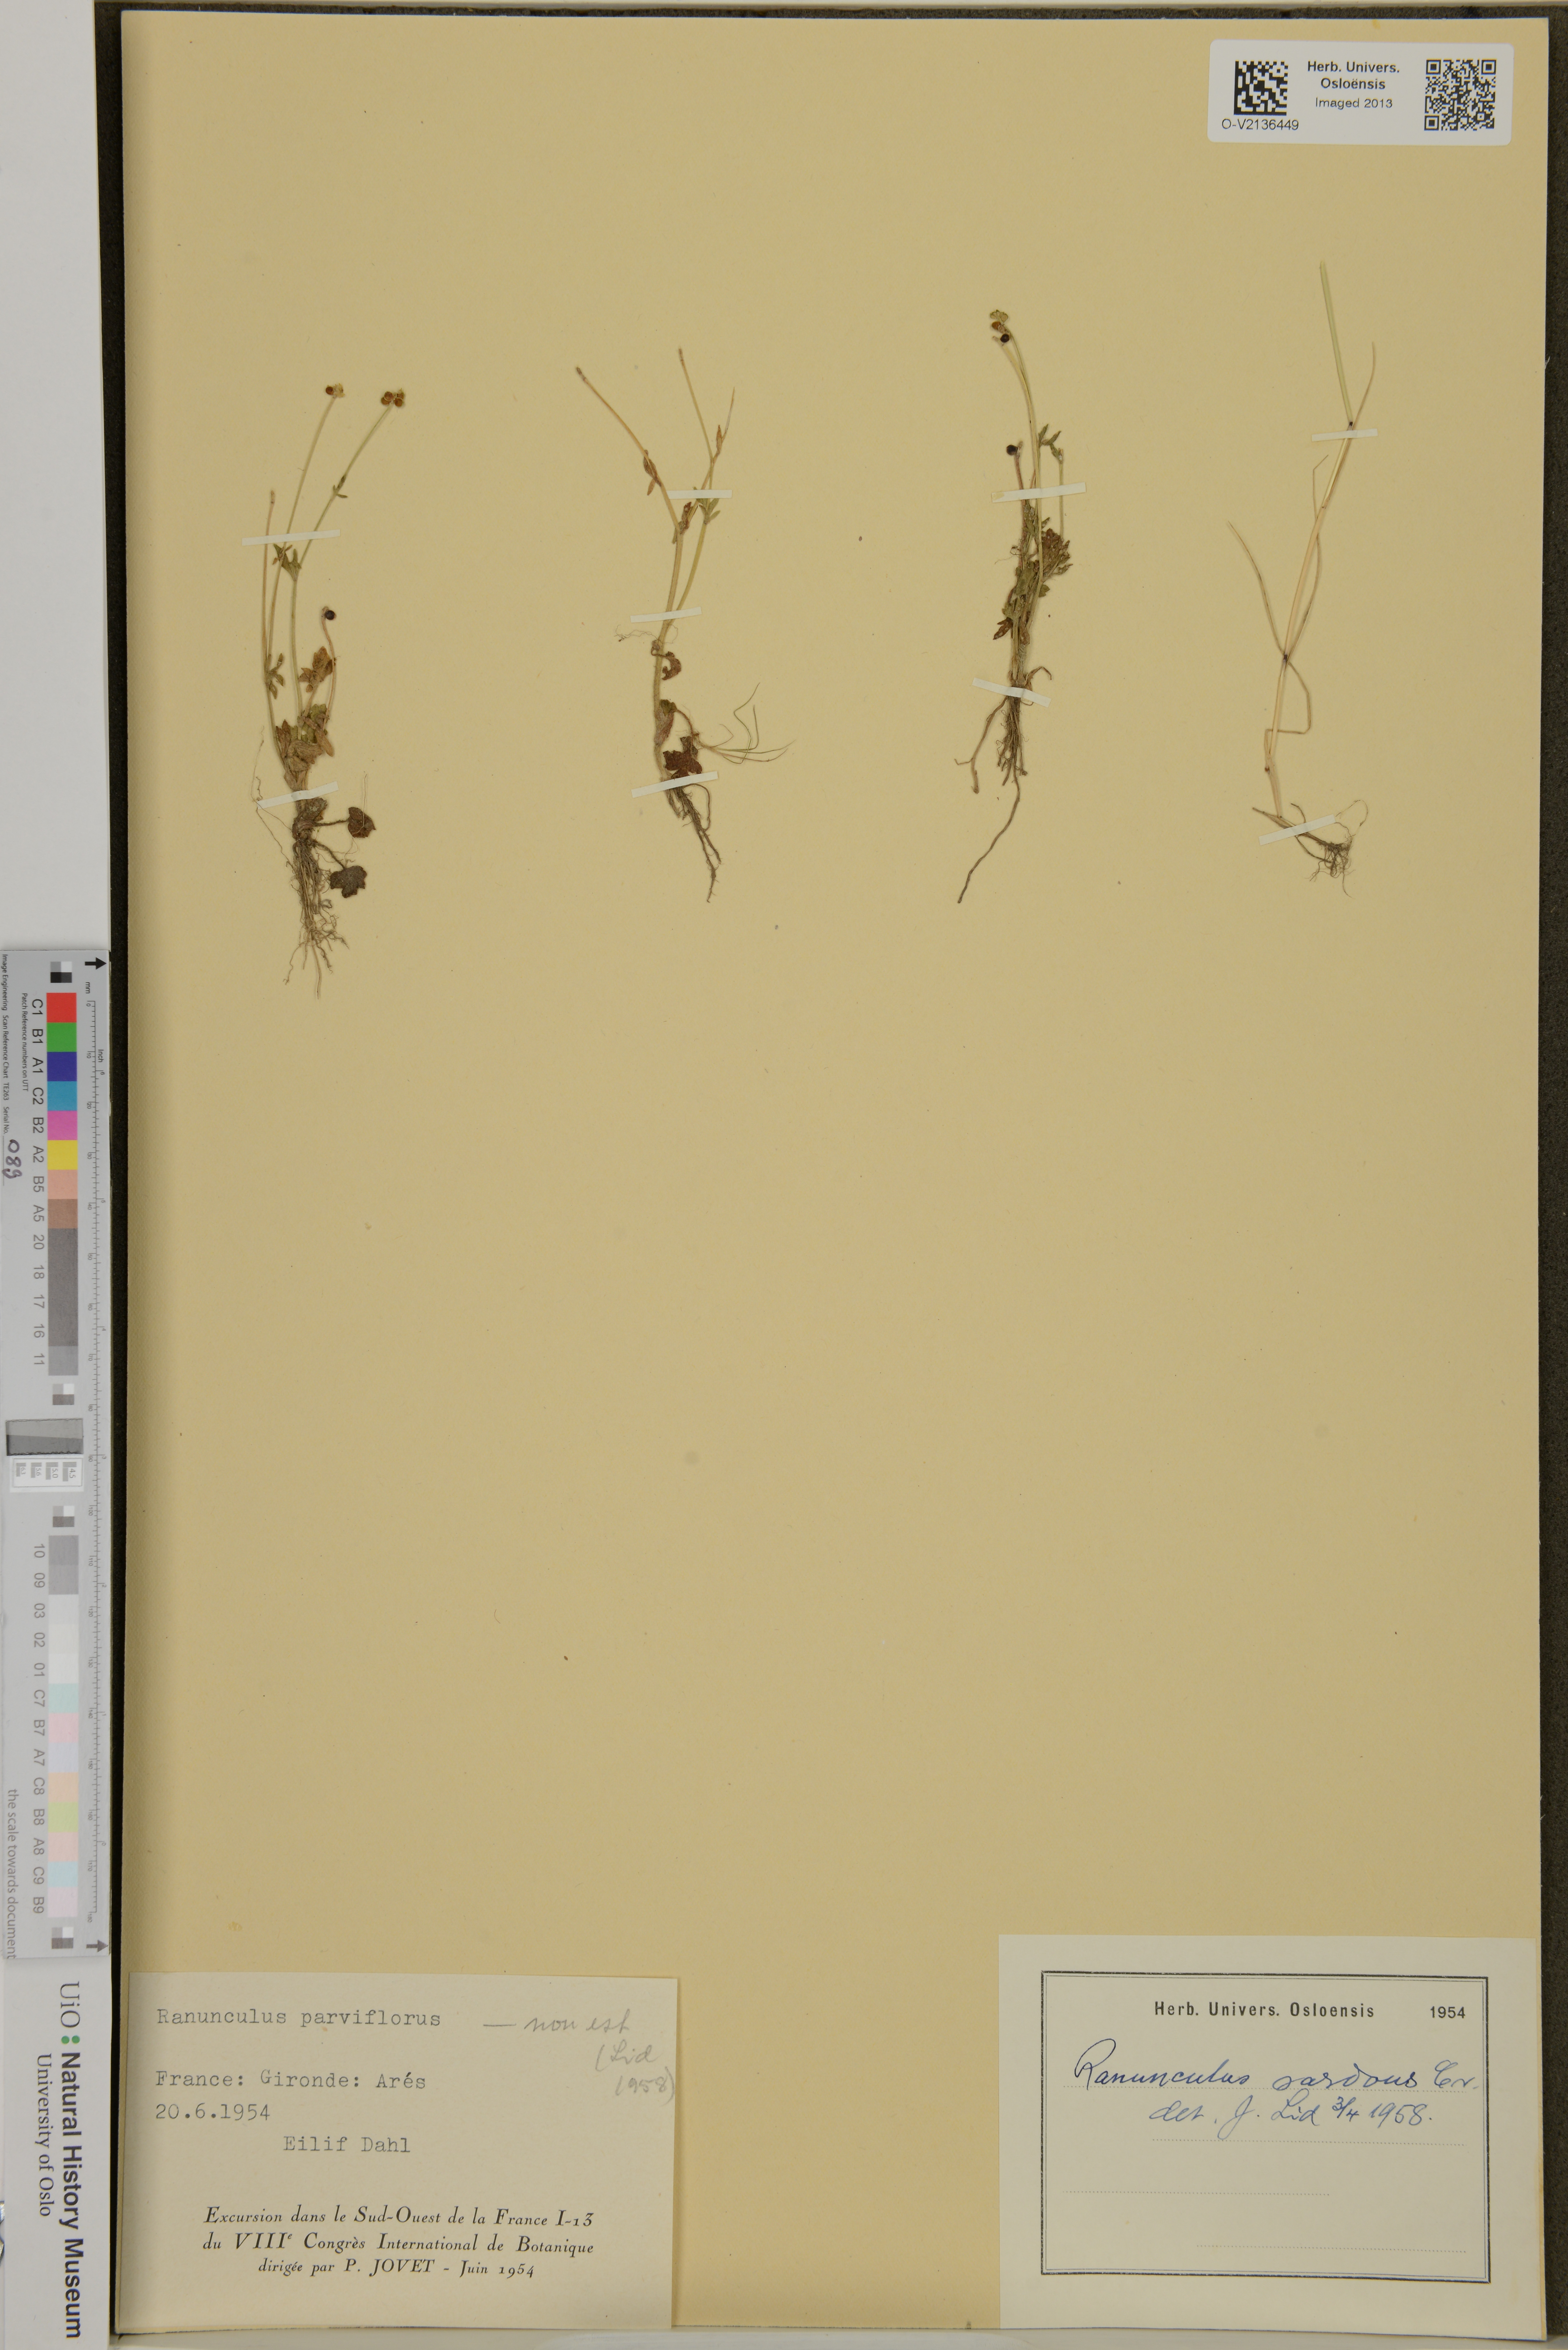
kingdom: Plantae
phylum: Tracheophyta
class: Magnoliopsida
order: Ranunculales
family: Ranunculaceae
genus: Ranunculus
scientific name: Ranunculus sardous
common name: Hairy buttercup
